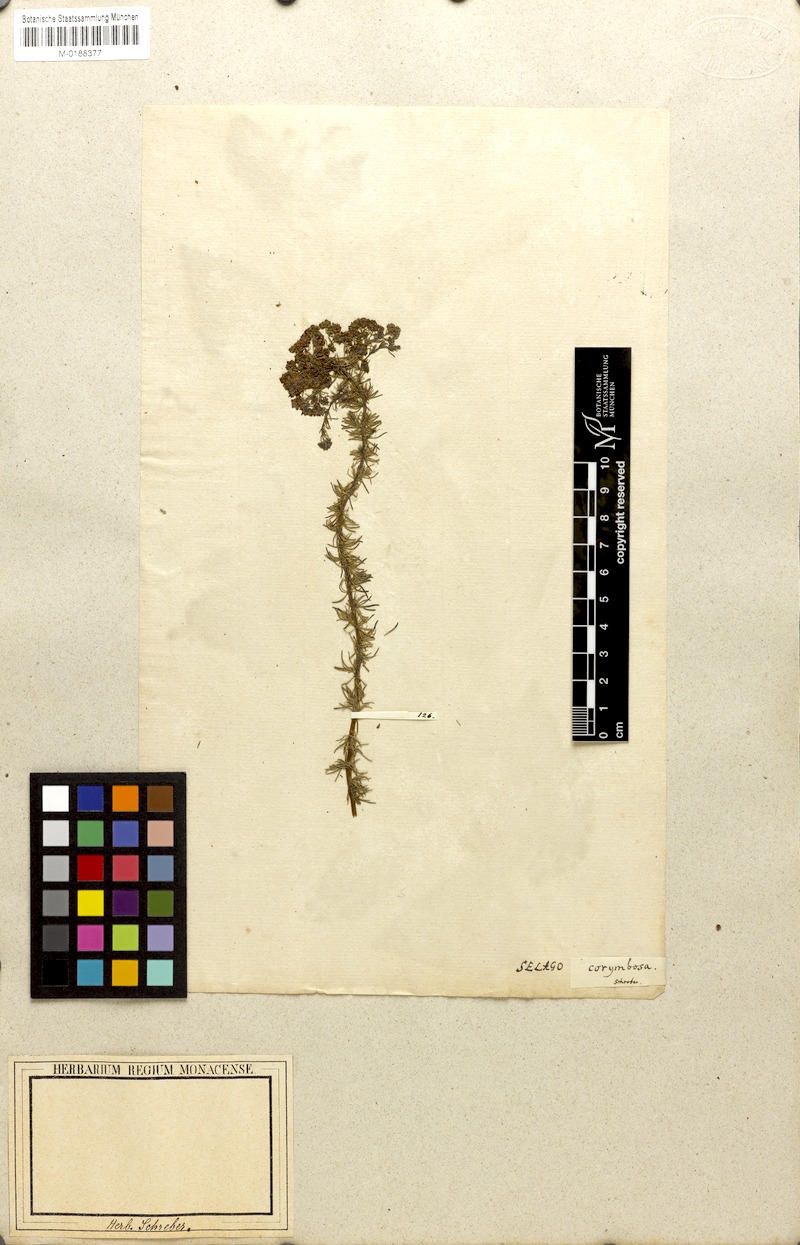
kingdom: Plantae
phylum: Tracheophyta
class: Magnoliopsida
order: Lamiales
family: Scrophulariaceae
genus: Selago
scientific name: Selago corymbosa
